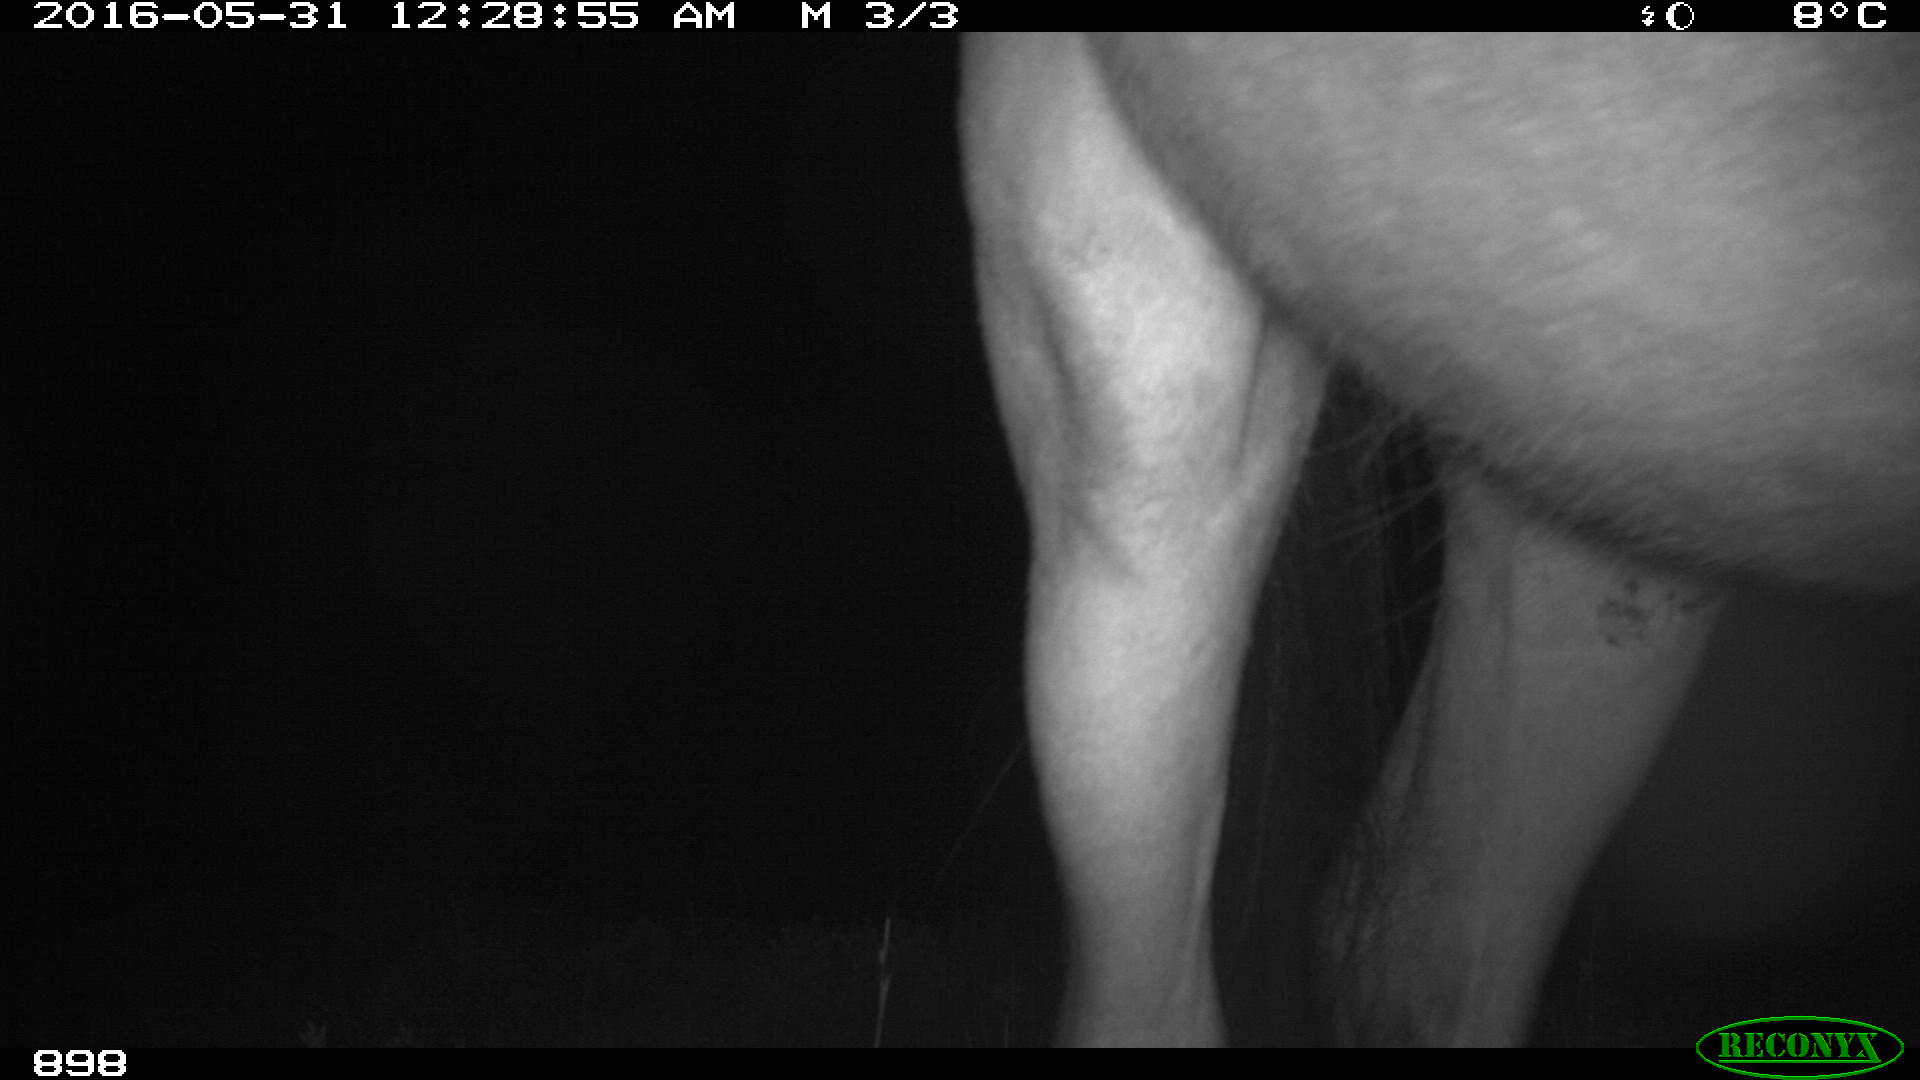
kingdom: Animalia
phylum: Chordata
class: Mammalia
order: Perissodactyla
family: Equidae
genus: Equus
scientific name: Equus caballus
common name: Horse
